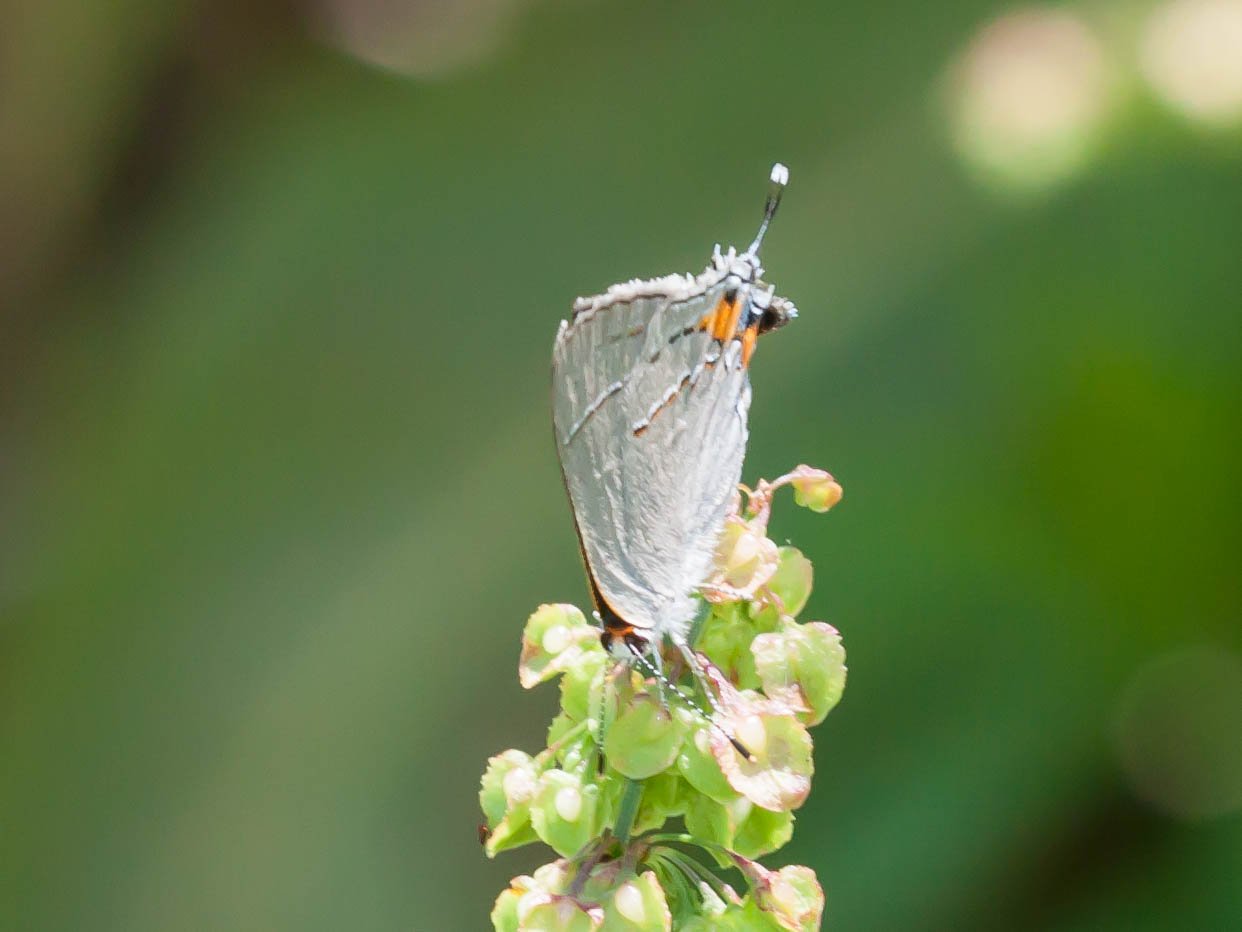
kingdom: Animalia
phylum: Arthropoda
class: Insecta
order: Lepidoptera
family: Lycaenidae
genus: Strymon
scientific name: Strymon melinus
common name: Gray Hairstreak
